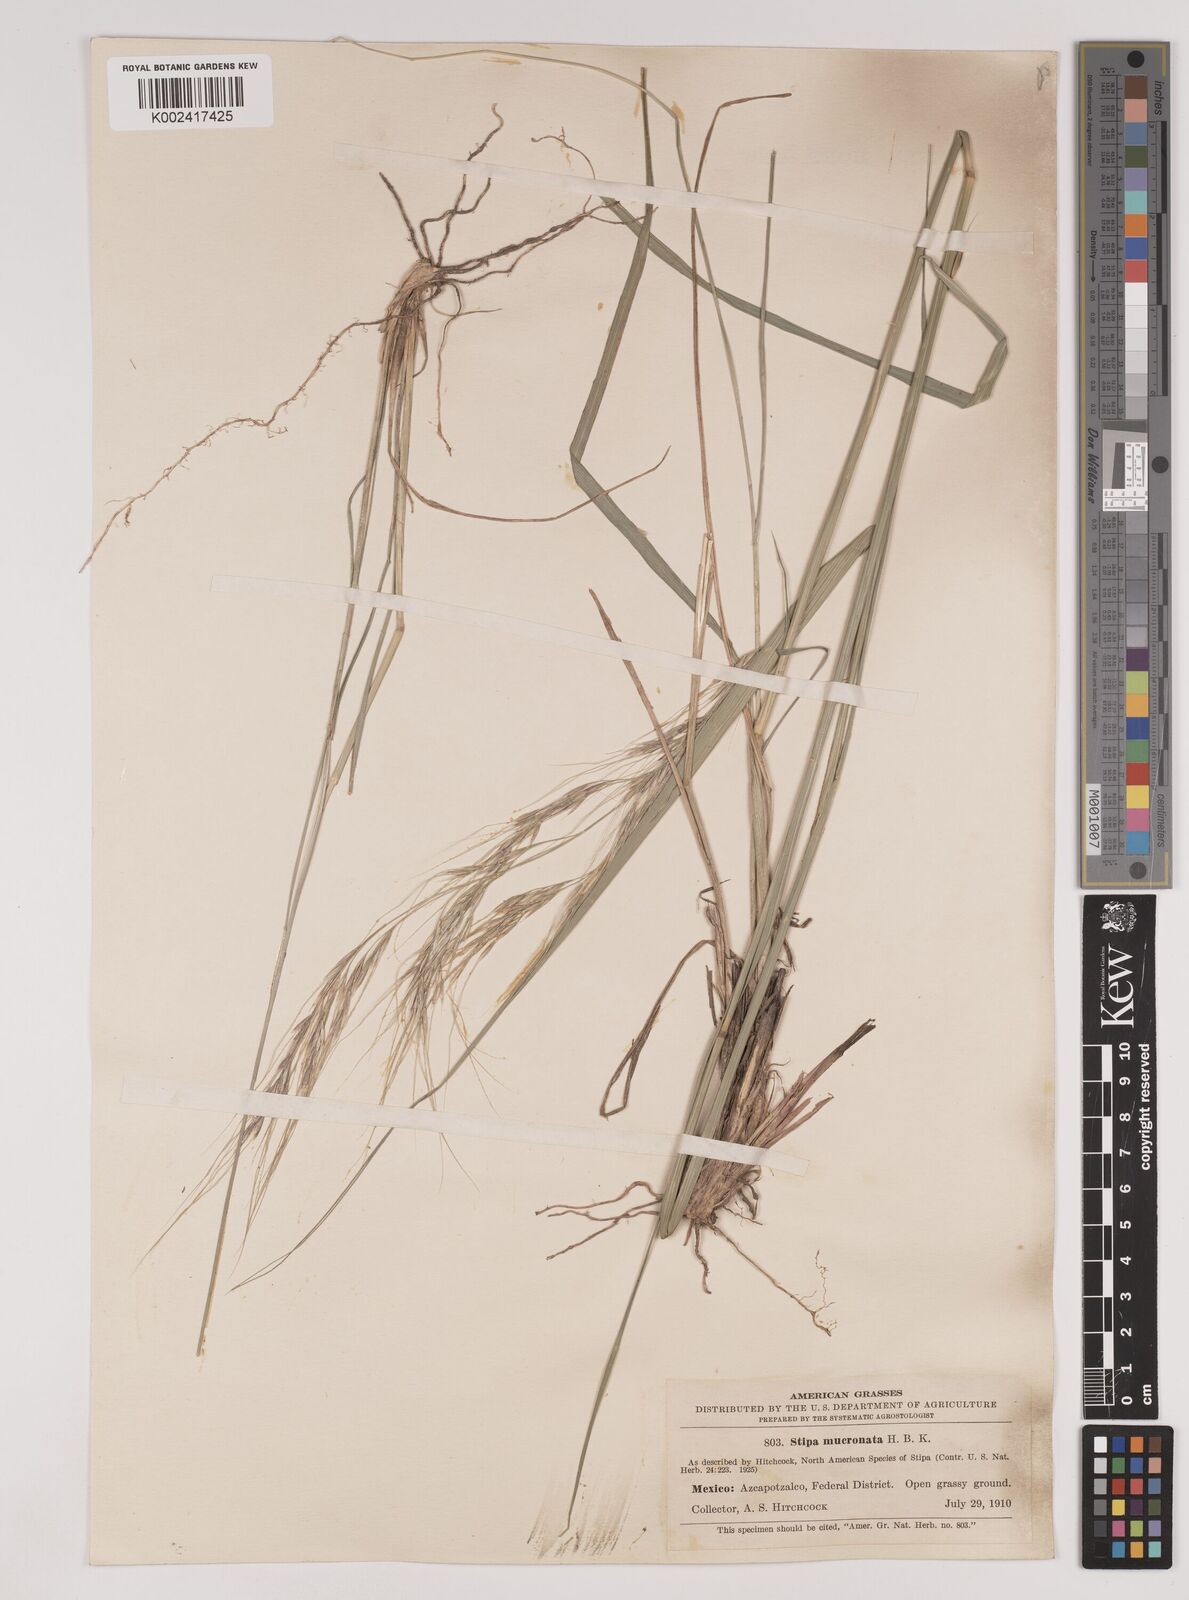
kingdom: Plantae
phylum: Tracheophyta
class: Liliopsida
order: Poales
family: Poaceae
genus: Nassella
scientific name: Nassella mucronata
